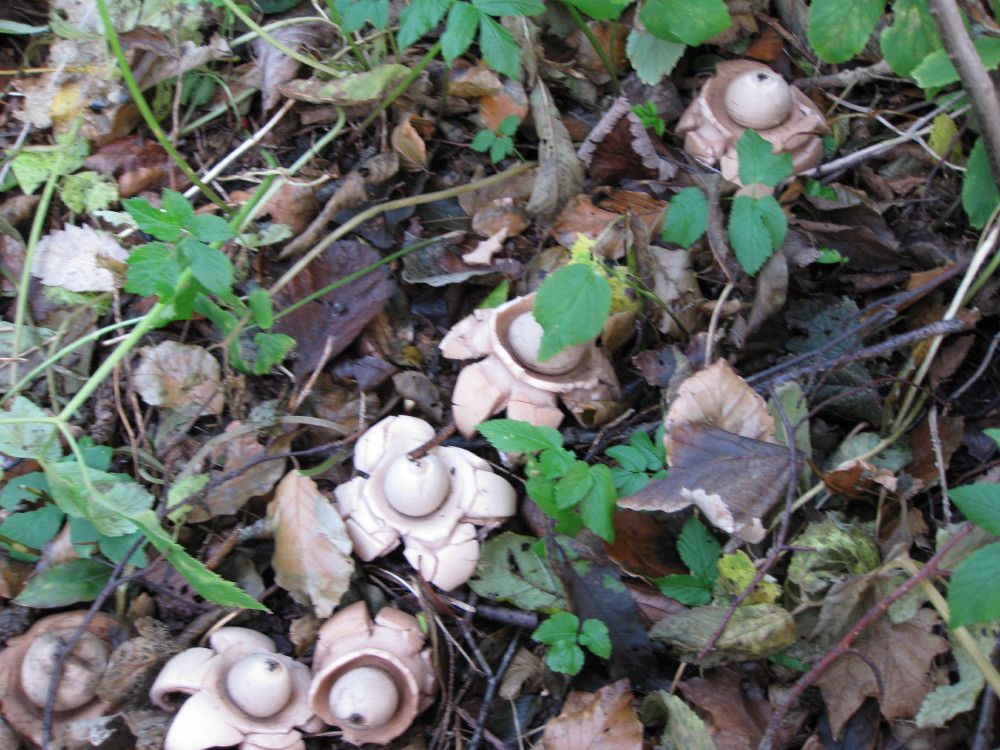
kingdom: Fungi
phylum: Basidiomycota
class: Agaricomycetes
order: Geastrales
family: Geastraceae
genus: Geastrum
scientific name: Geastrum michelianum
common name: kødet stjernebold
